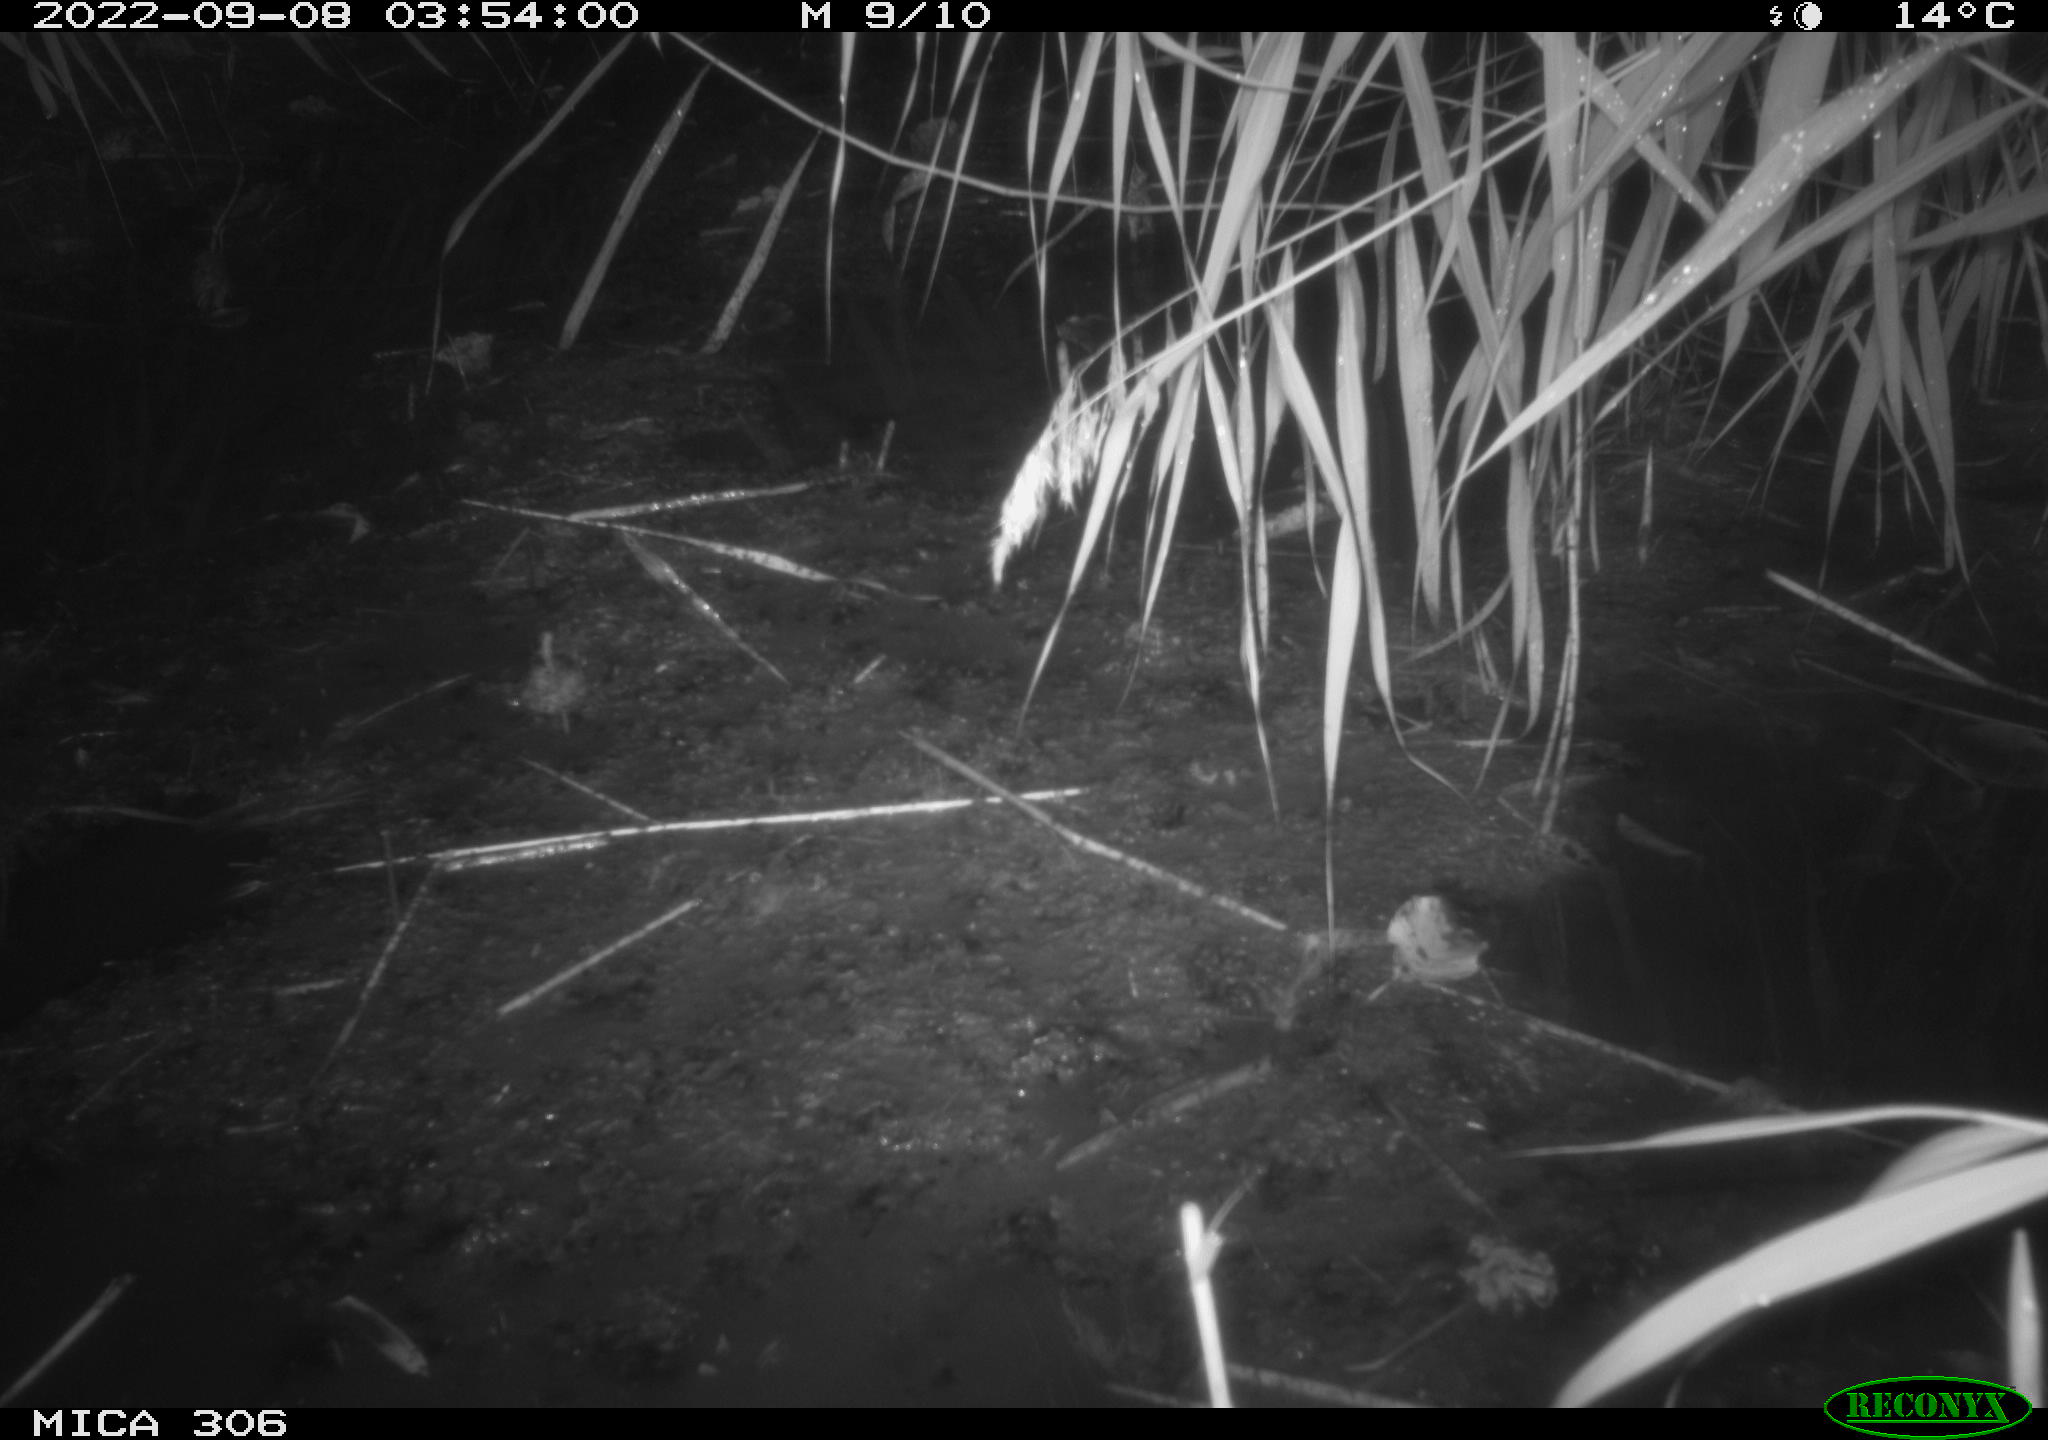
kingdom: Animalia
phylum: Chordata
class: Mammalia
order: Rodentia
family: Muridae
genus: Rattus
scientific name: Rattus norvegicus
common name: Brown rat
